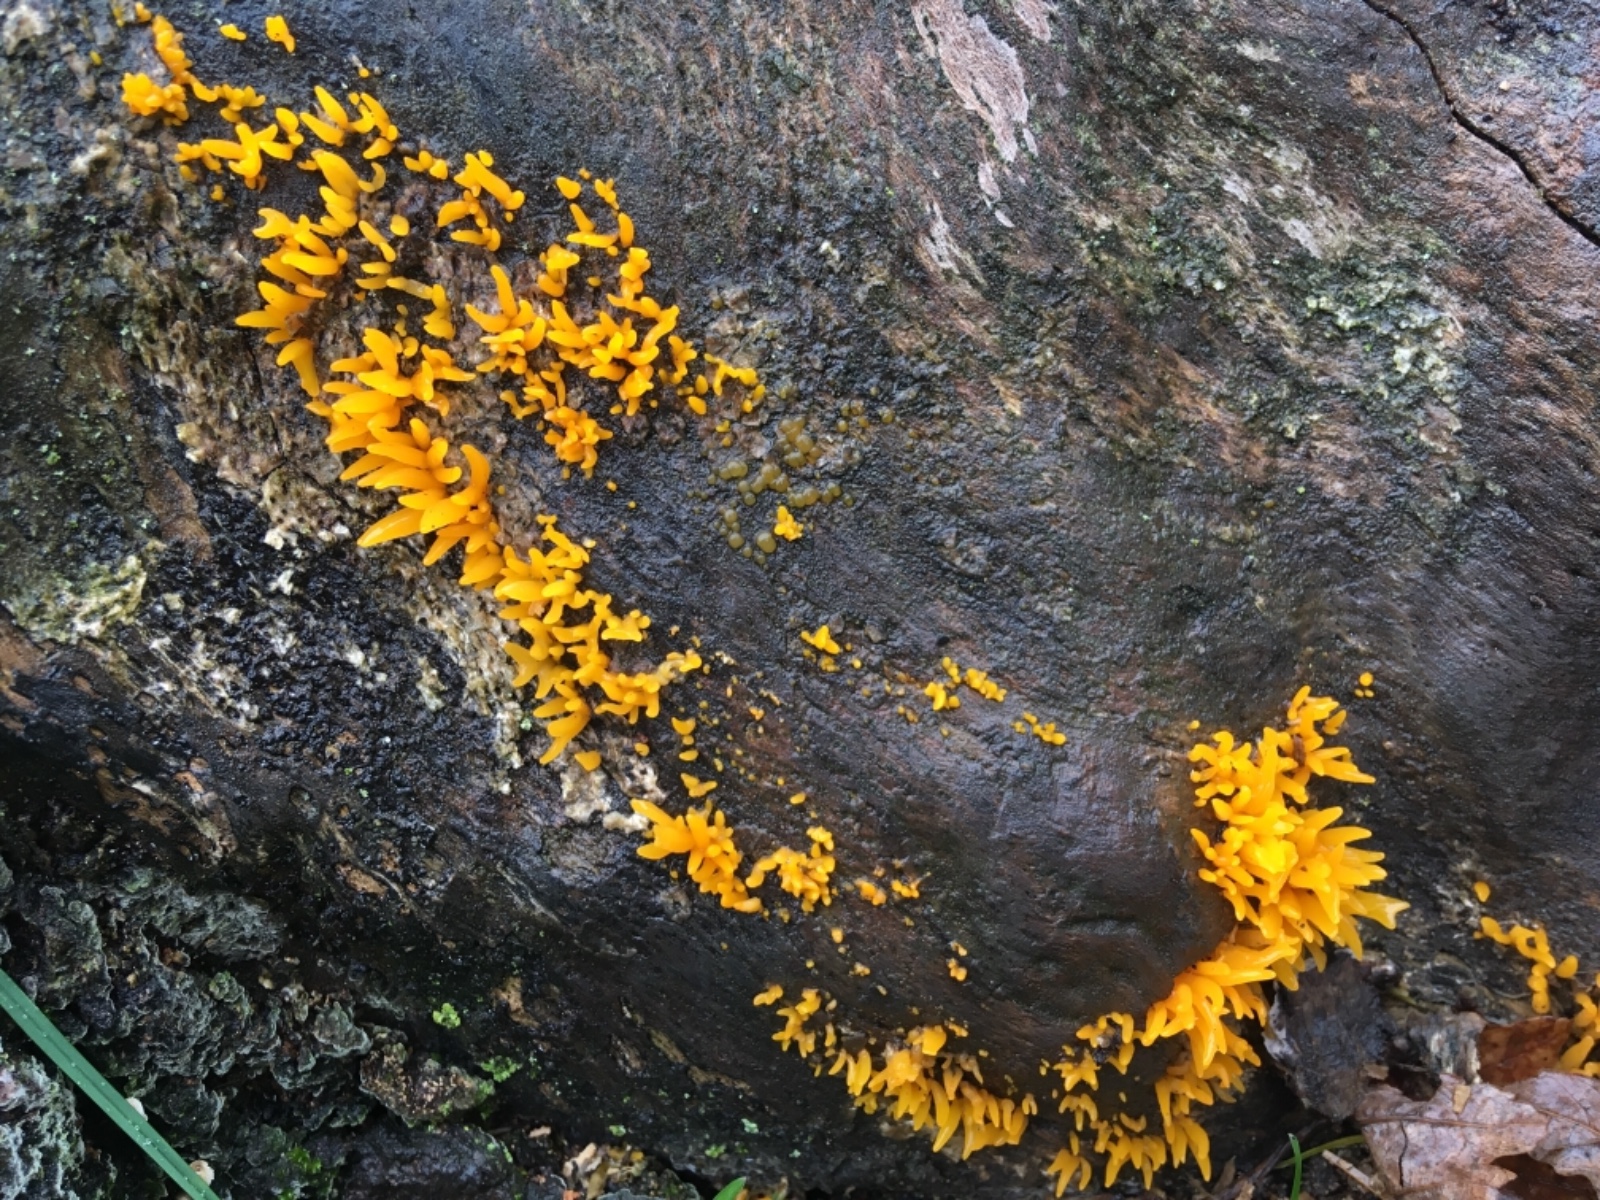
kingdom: Fungi
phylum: Basidiomycota
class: Dacrymycetes
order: Dacrymycetales
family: Dacrymycetaceae
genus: Calocera
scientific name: Calocera viscosa
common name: almindelig guldgaffel
